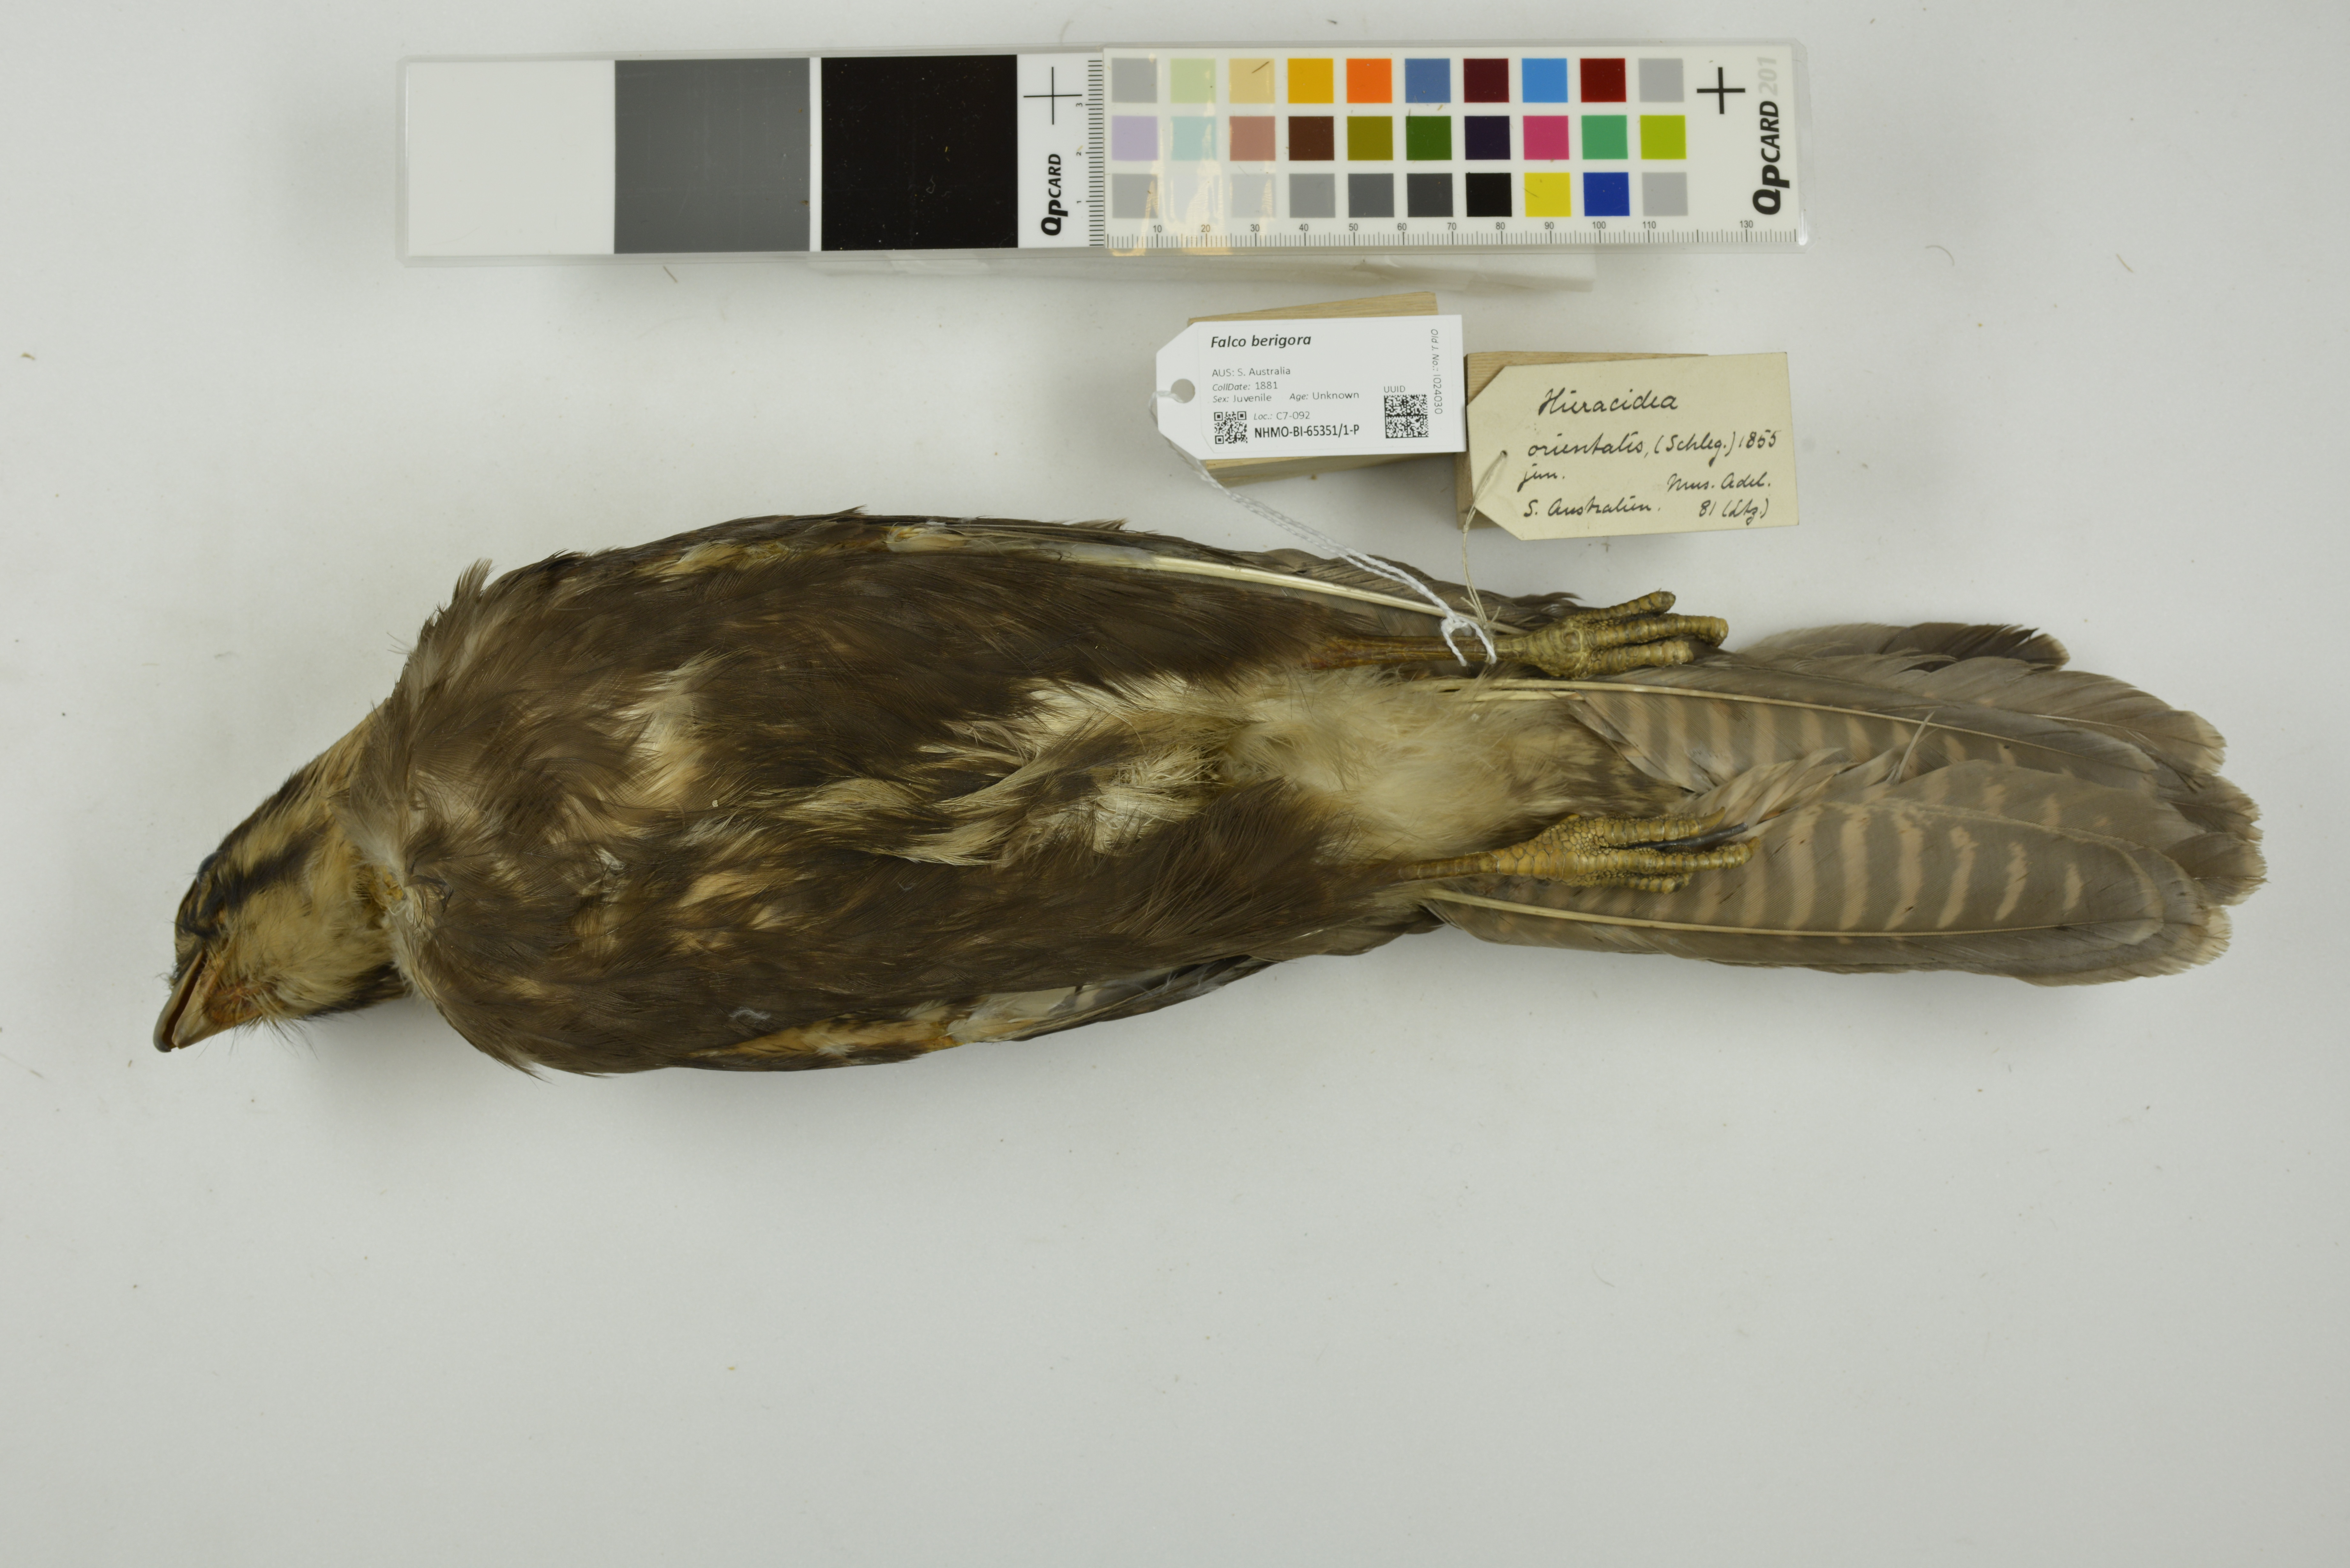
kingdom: Animalia
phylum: Chordata
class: Aves
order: Falconiformes
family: Falconidae
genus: Falco
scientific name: Falco berigora
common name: Brown falcon
